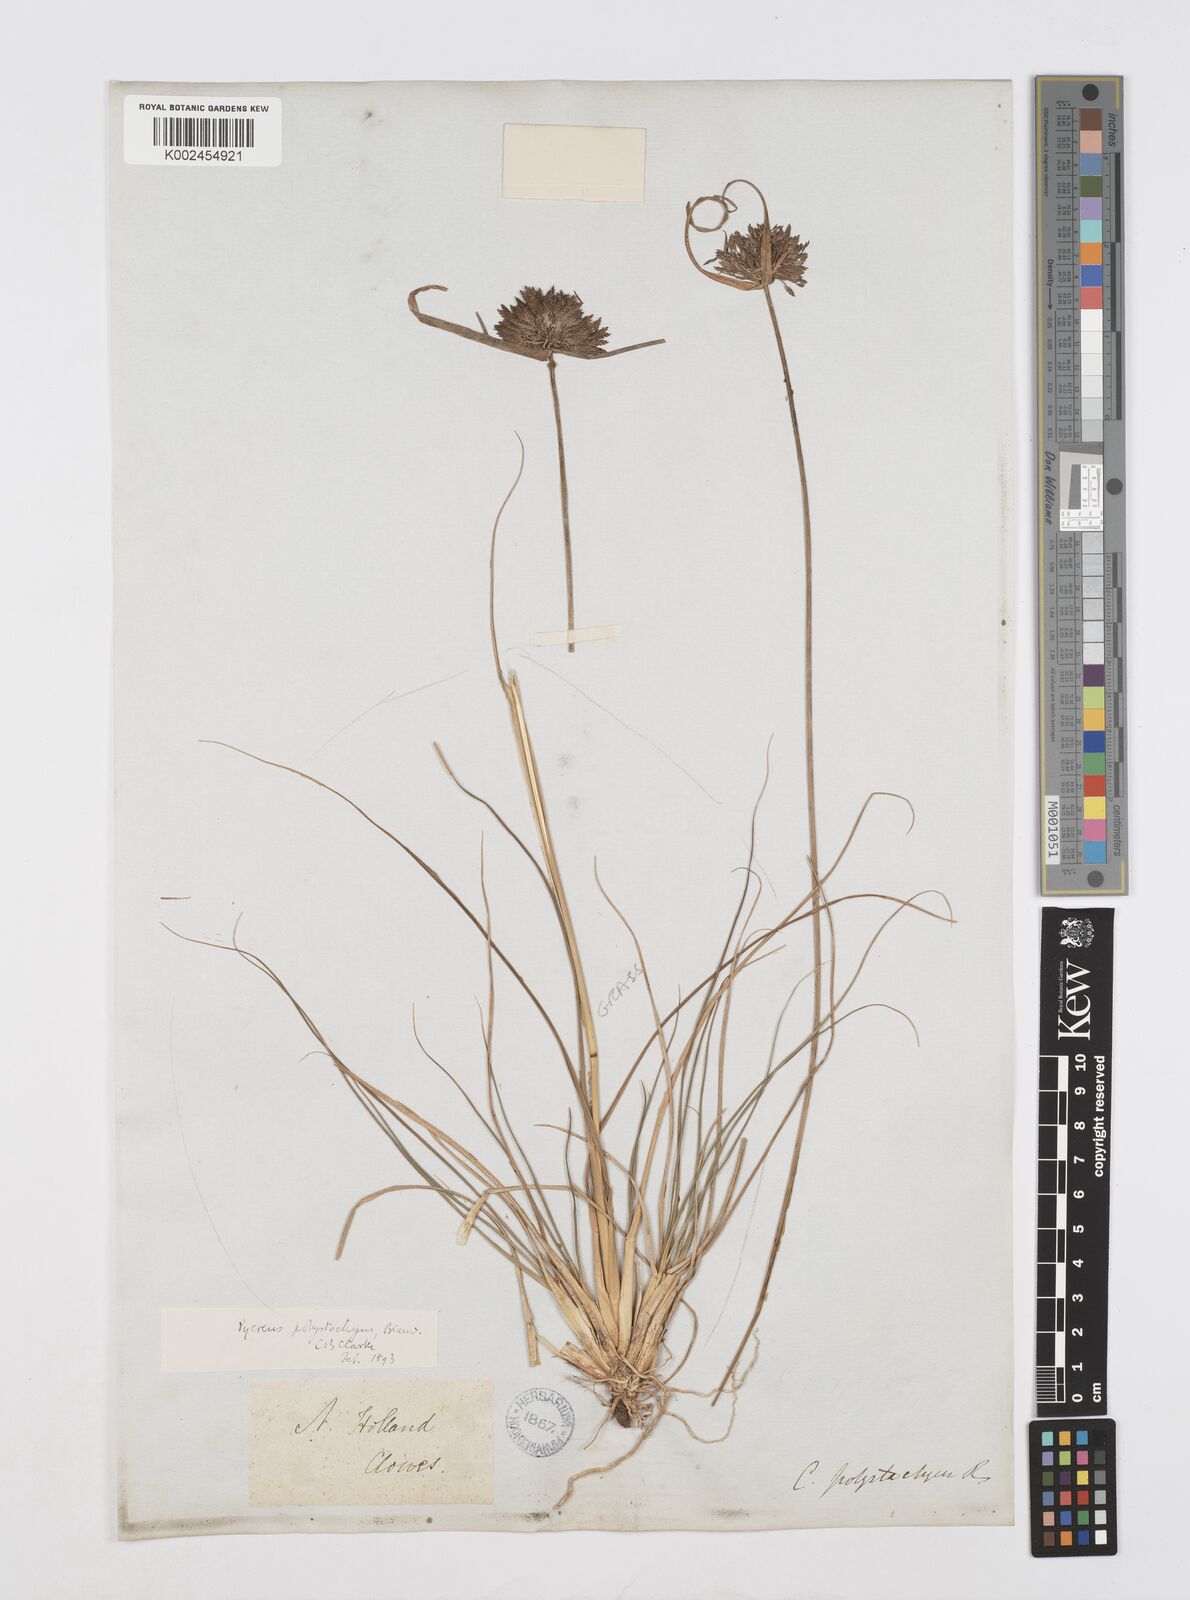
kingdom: Plantae
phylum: Tracheophyta
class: Liliopsida
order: Poales
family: Cyperaceae
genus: Cyperus
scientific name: Cyperus polystachyos
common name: Bunchy flat sedge
